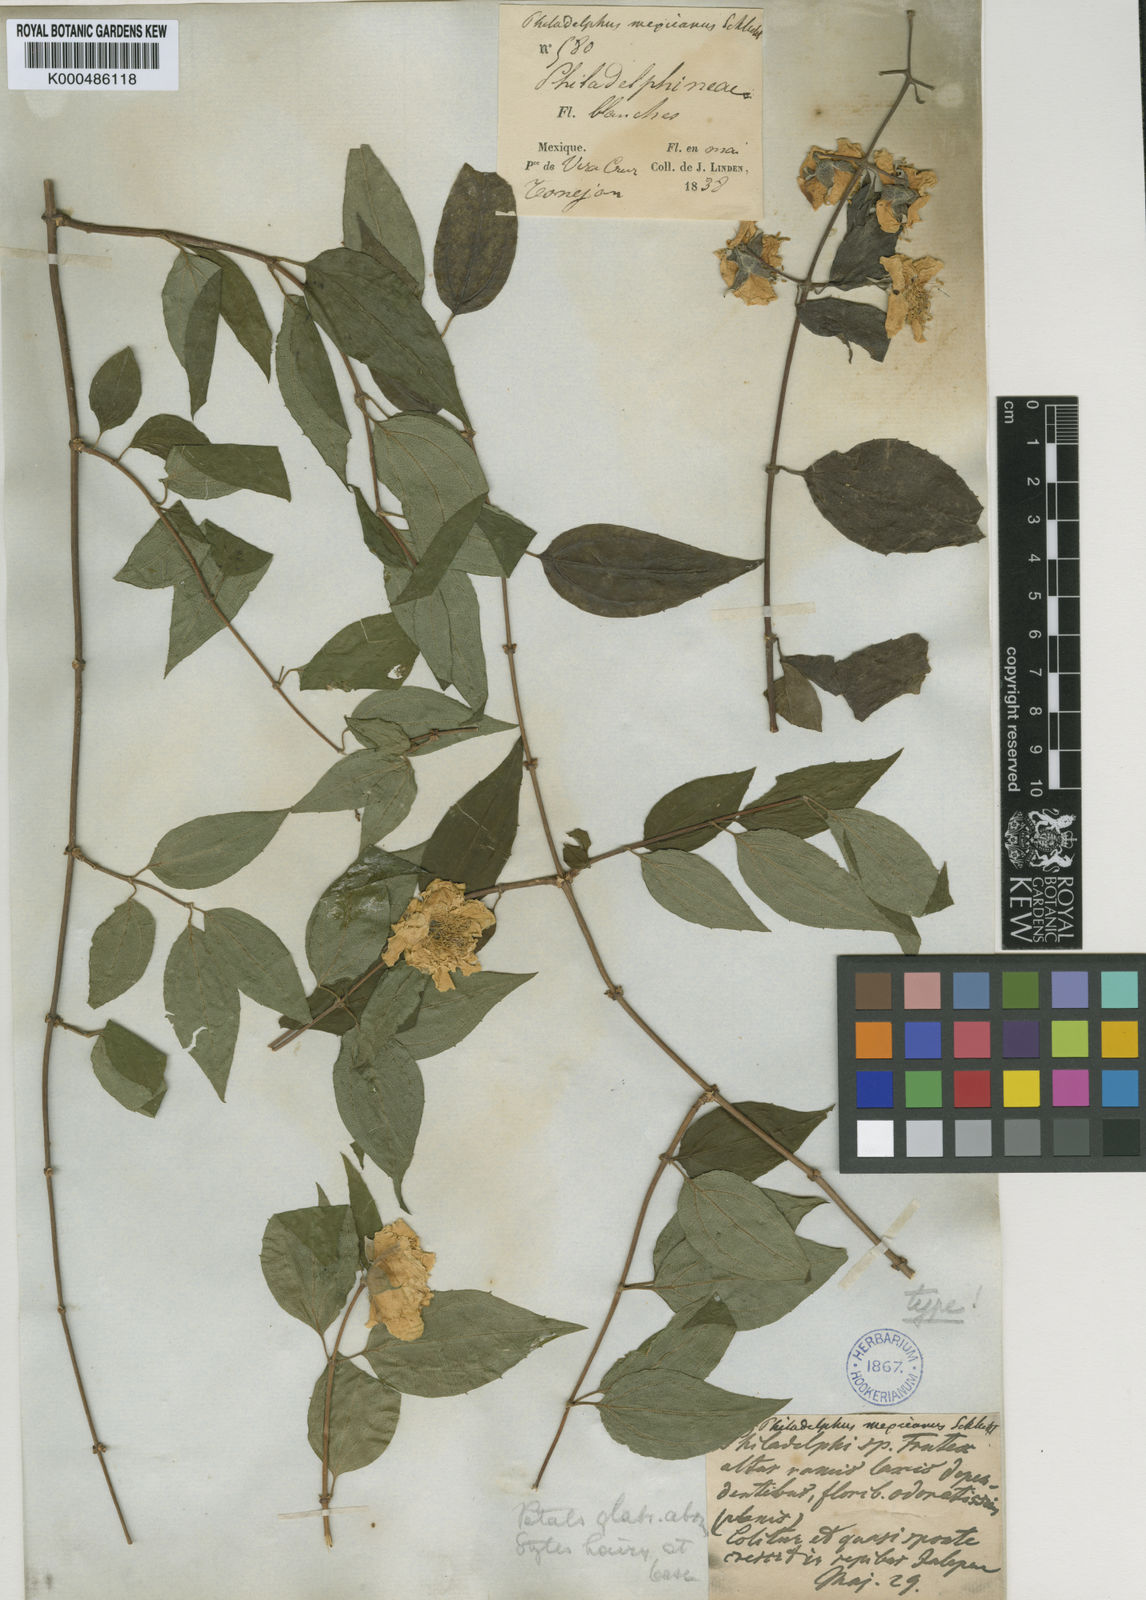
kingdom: Plantae
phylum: Tracheophyta
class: Magnoliopsida
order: Cornales
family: Hydrangeaceae
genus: Philadelphus
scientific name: Philadelphus mexicanus
